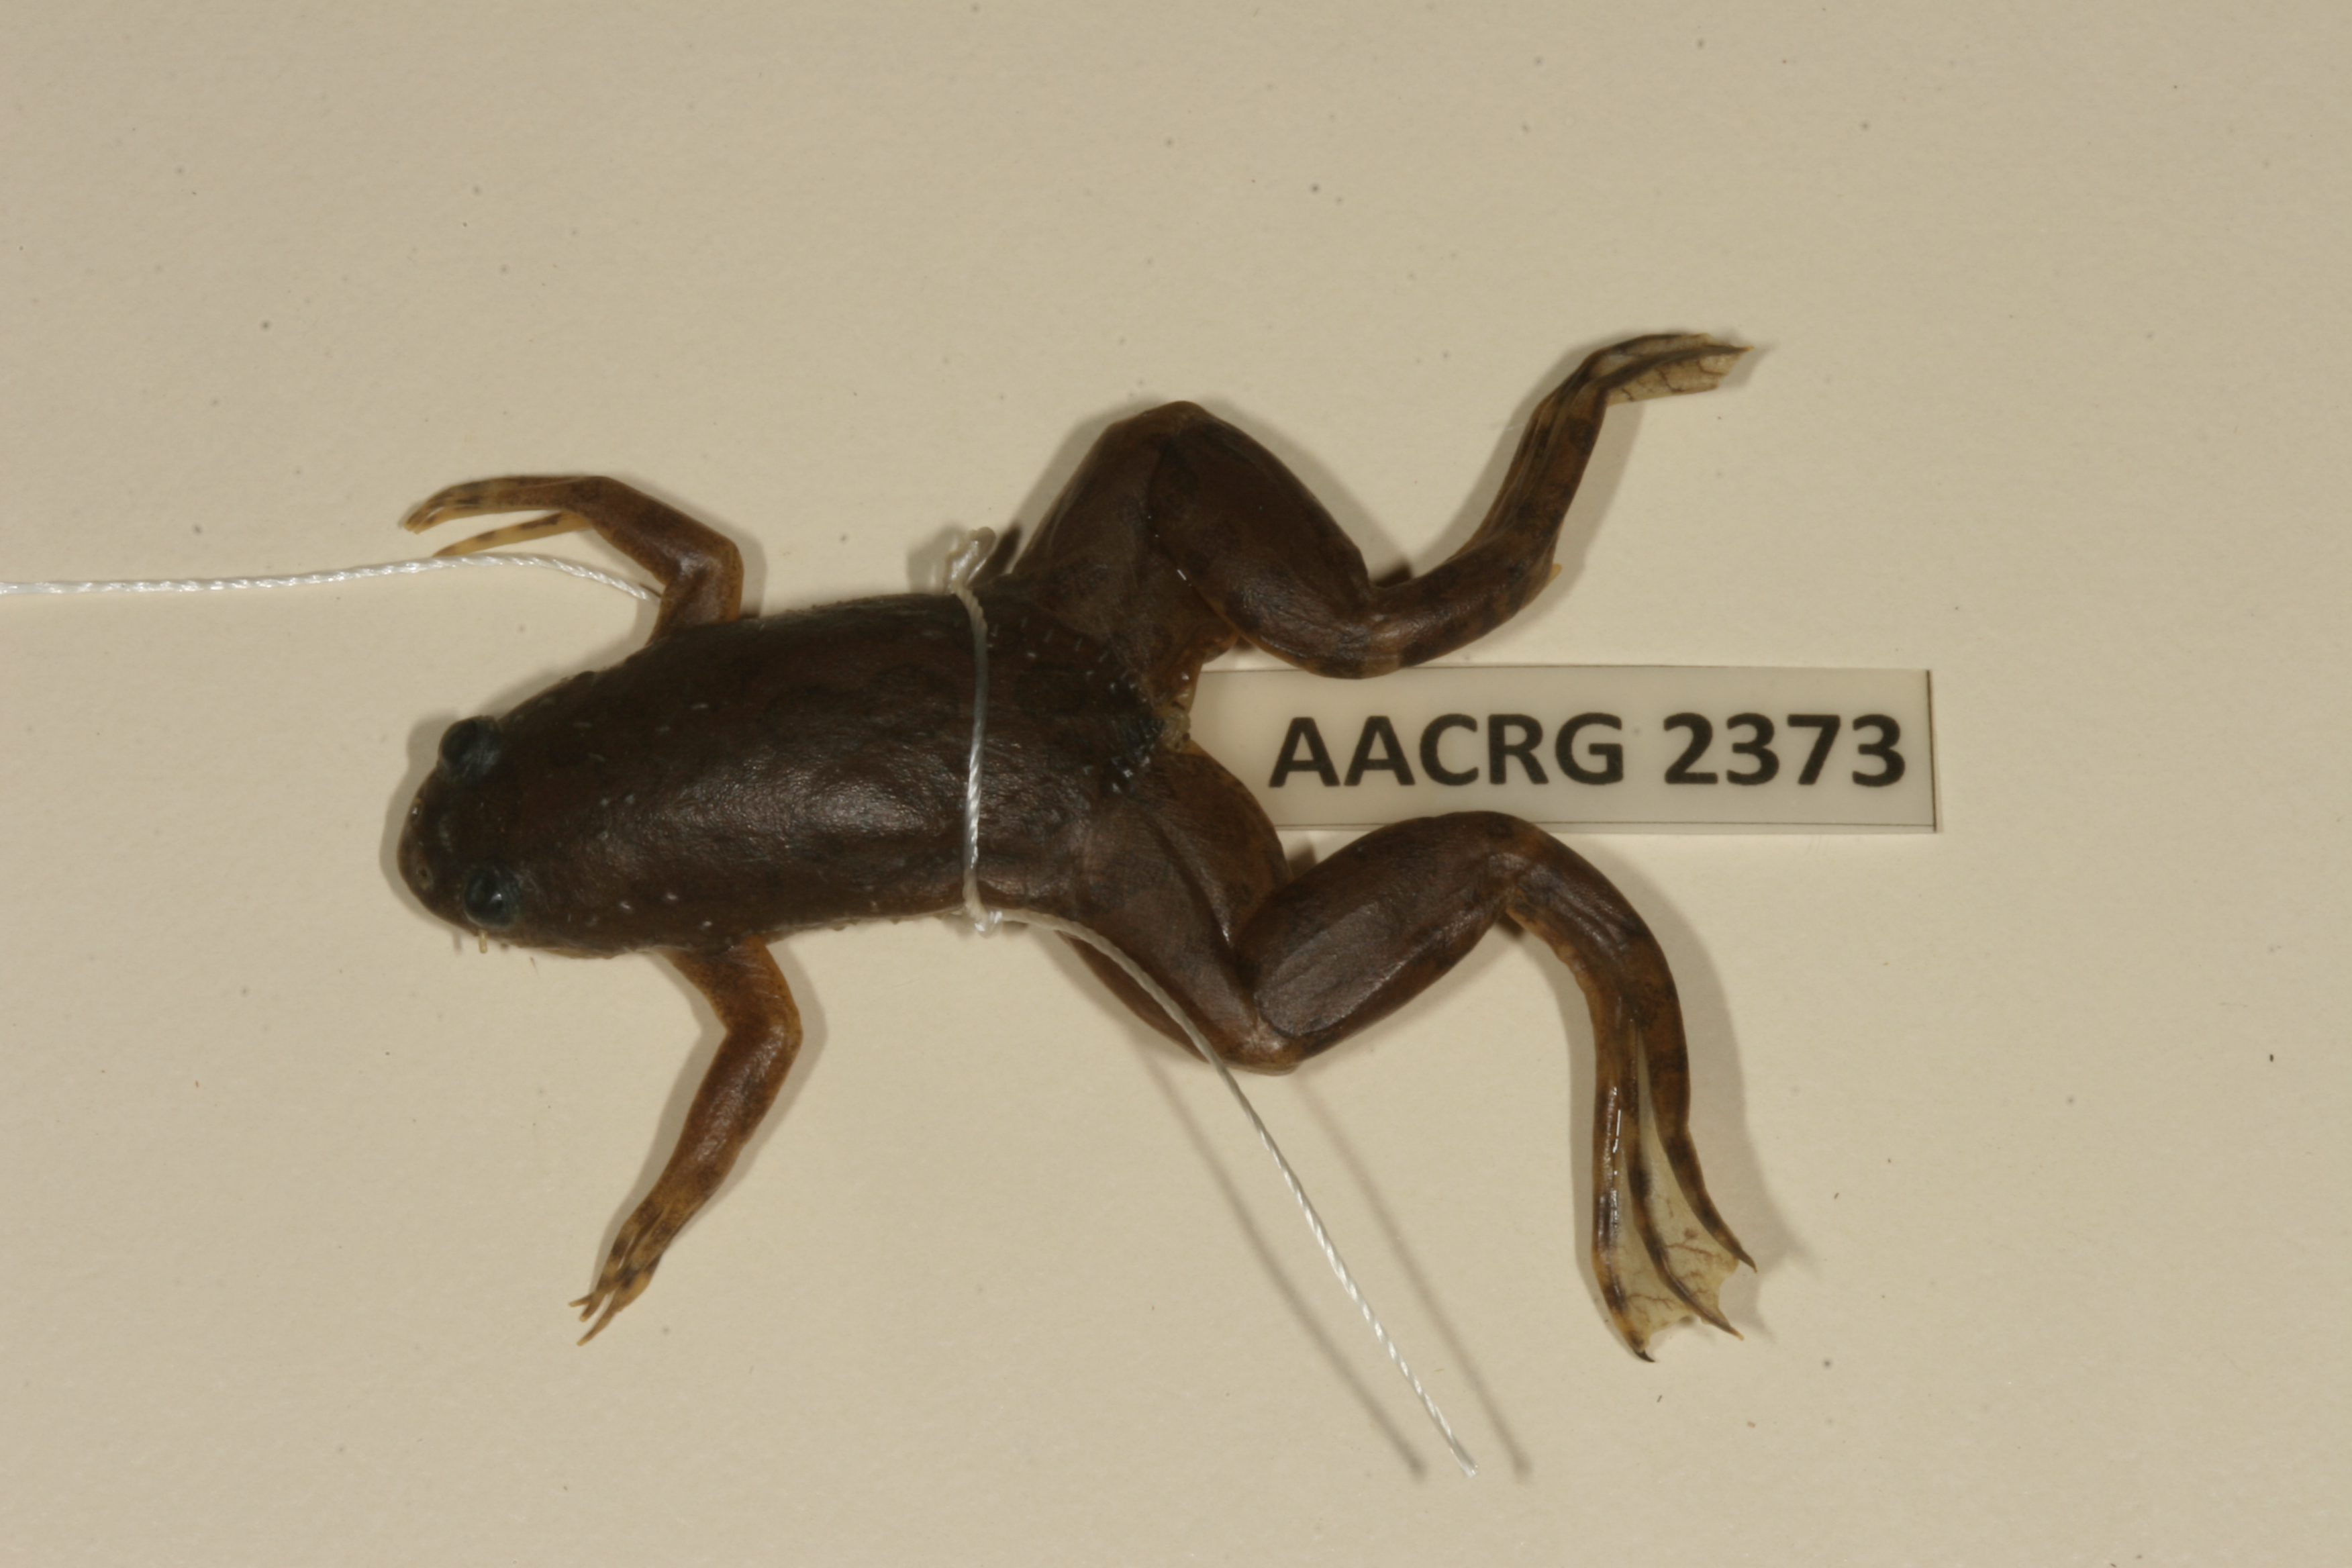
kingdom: Animalia
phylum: Chordata
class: Amphibia
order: Anura
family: Pipidae
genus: Xenopus
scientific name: Xenopus muelleri
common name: Muller's clawed frog
